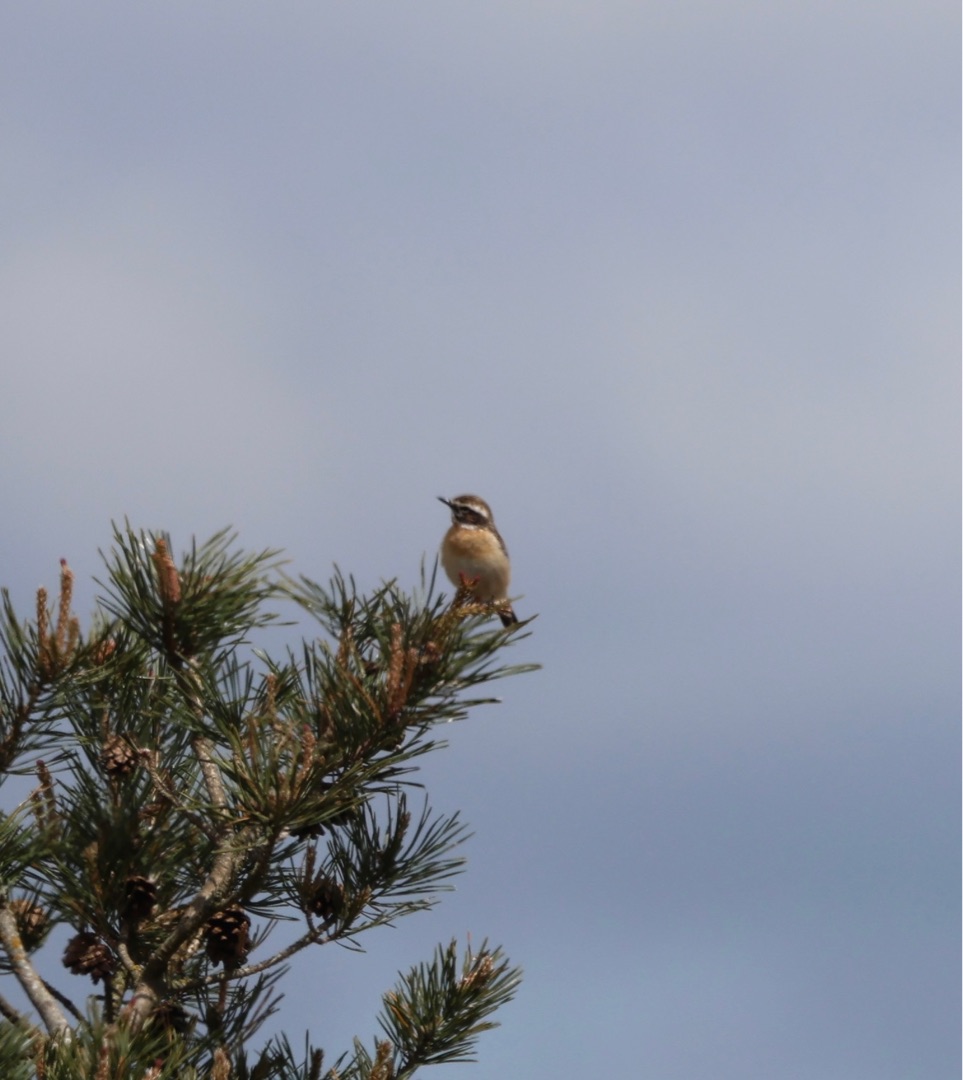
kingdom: Animalia
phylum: Chordata
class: Aves
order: Passeriformes
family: Muscicapidae
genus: Saxicola
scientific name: Saxicola rubetra
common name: Bynkefugl
